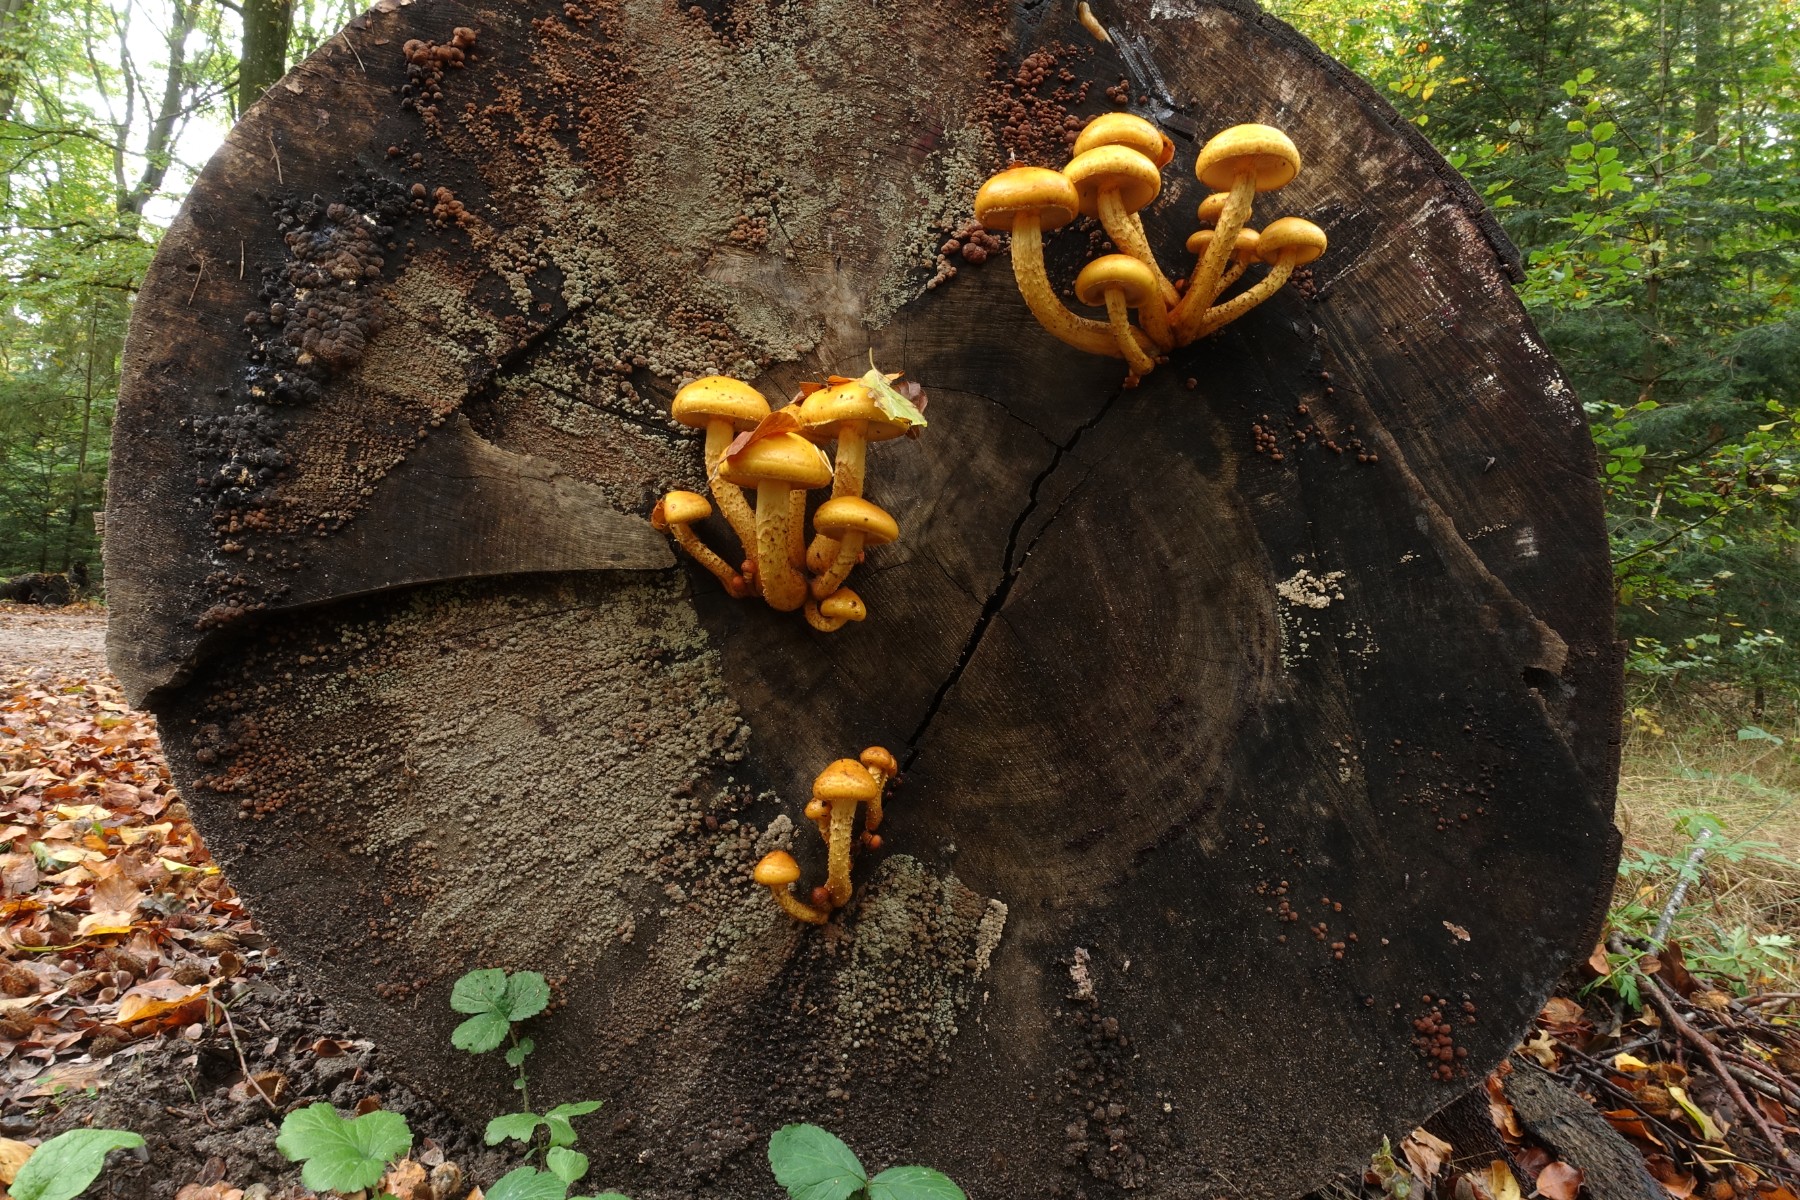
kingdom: Fungi
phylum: Basidiomycota
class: Agaricomycetes
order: Agaricales
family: Strophariaceae
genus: Pholiota
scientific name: Pholiota adiposa
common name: højtsiddende skælhat
